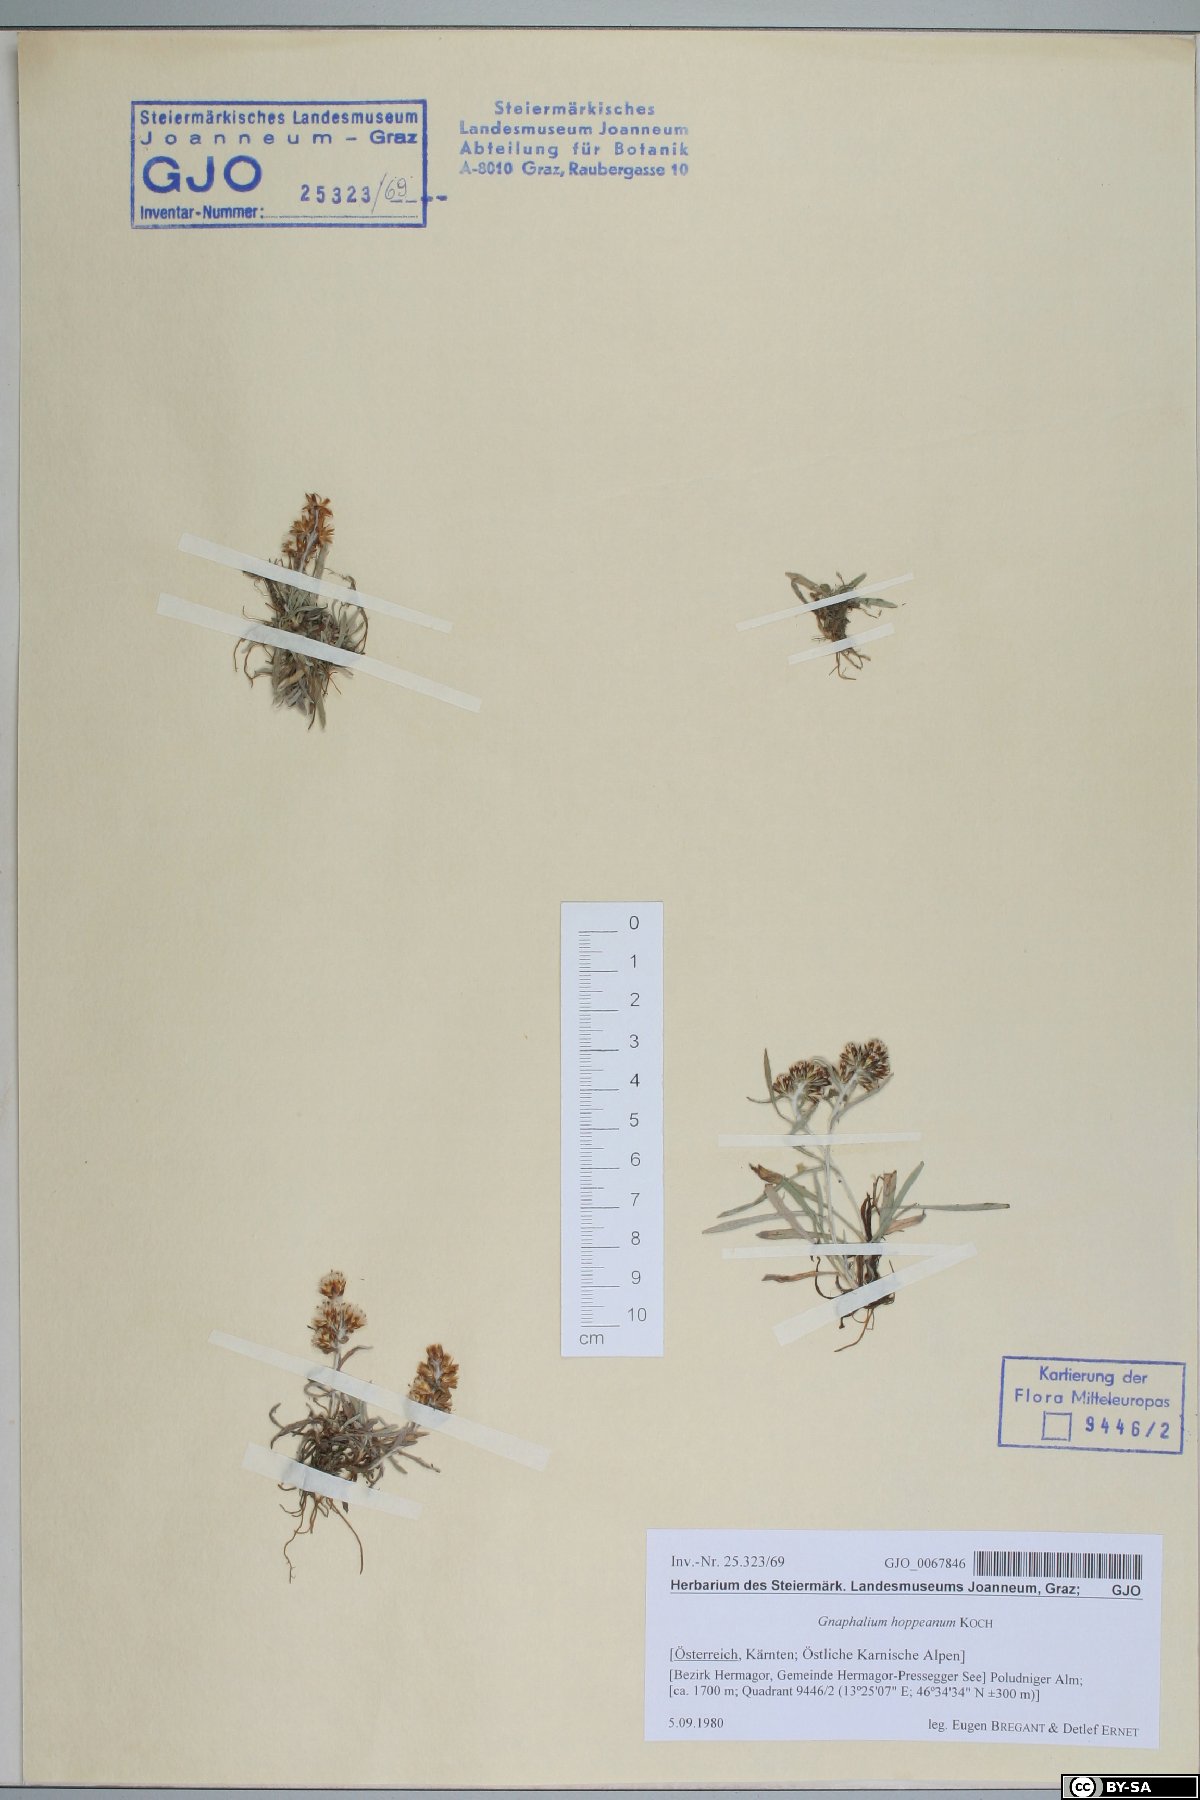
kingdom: Plantae
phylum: Tracheophyta
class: Magnoliopsida
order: Asterales
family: Asteraceae
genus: Omalotheca
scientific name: Omalotheca hoppeana
